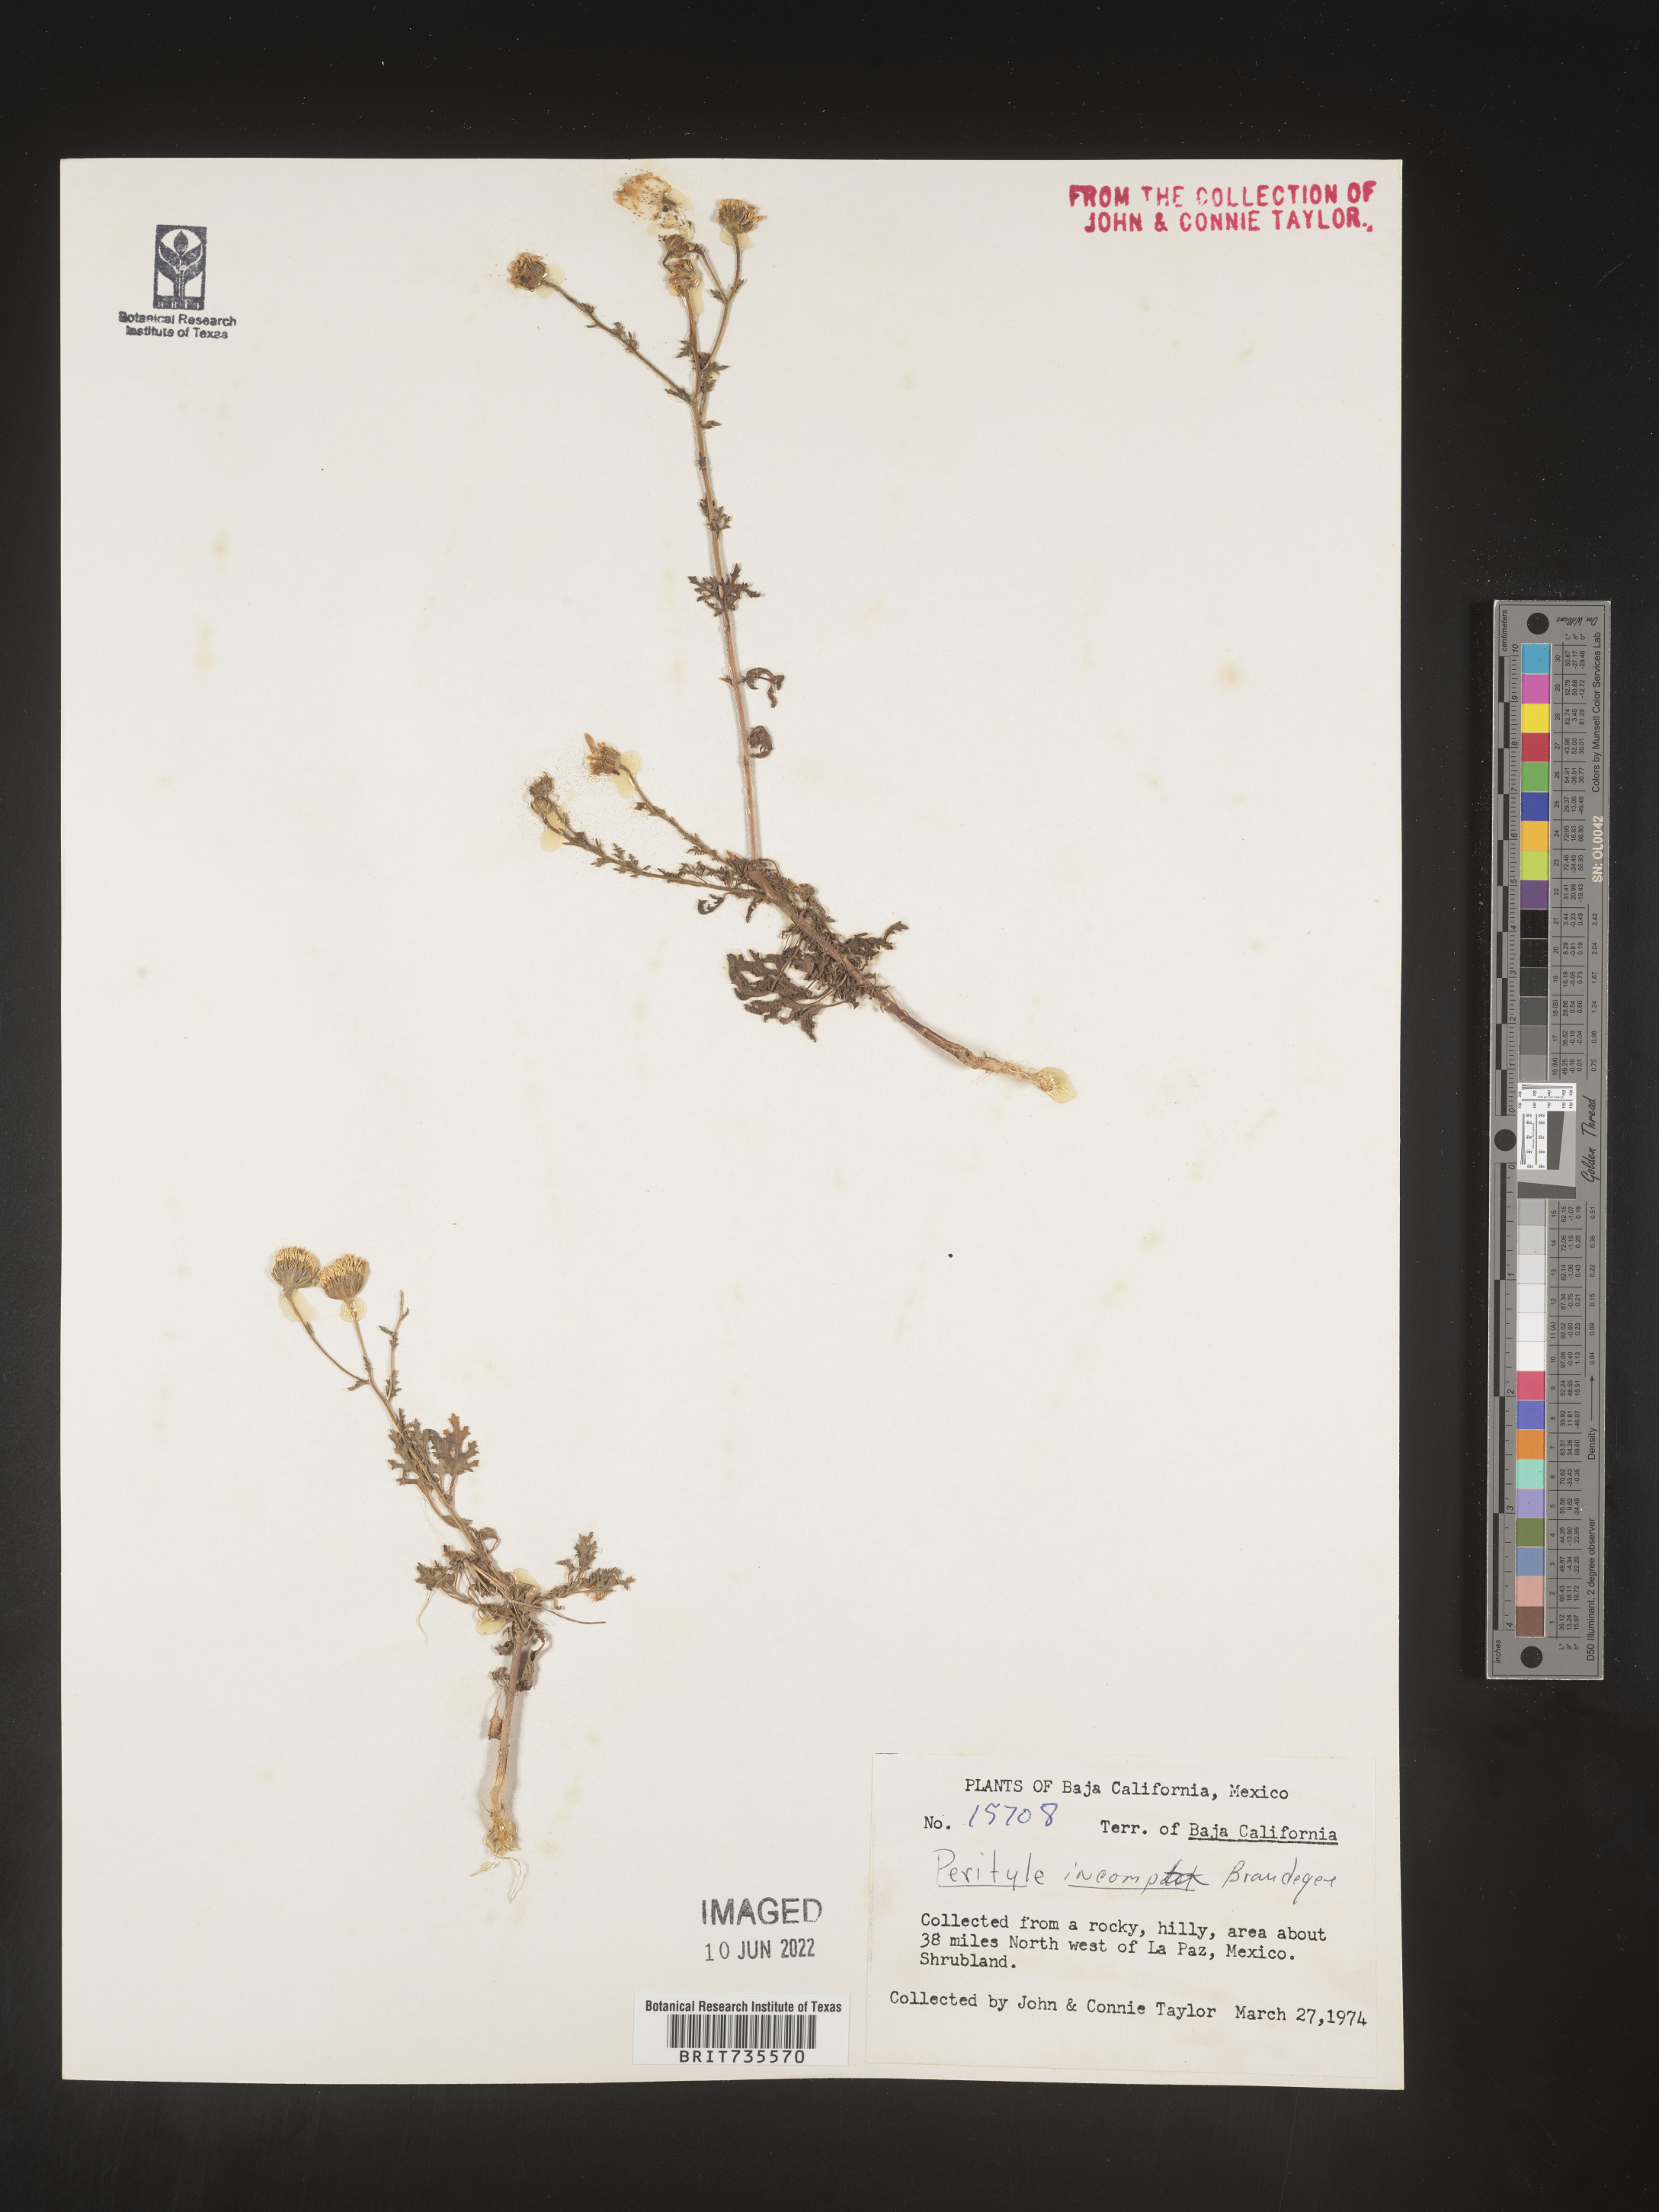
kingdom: Plantae
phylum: Tracheophyta
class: Magnoliopsida
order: Asterales
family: Asteraceae
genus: Perityle
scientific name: Perityle
